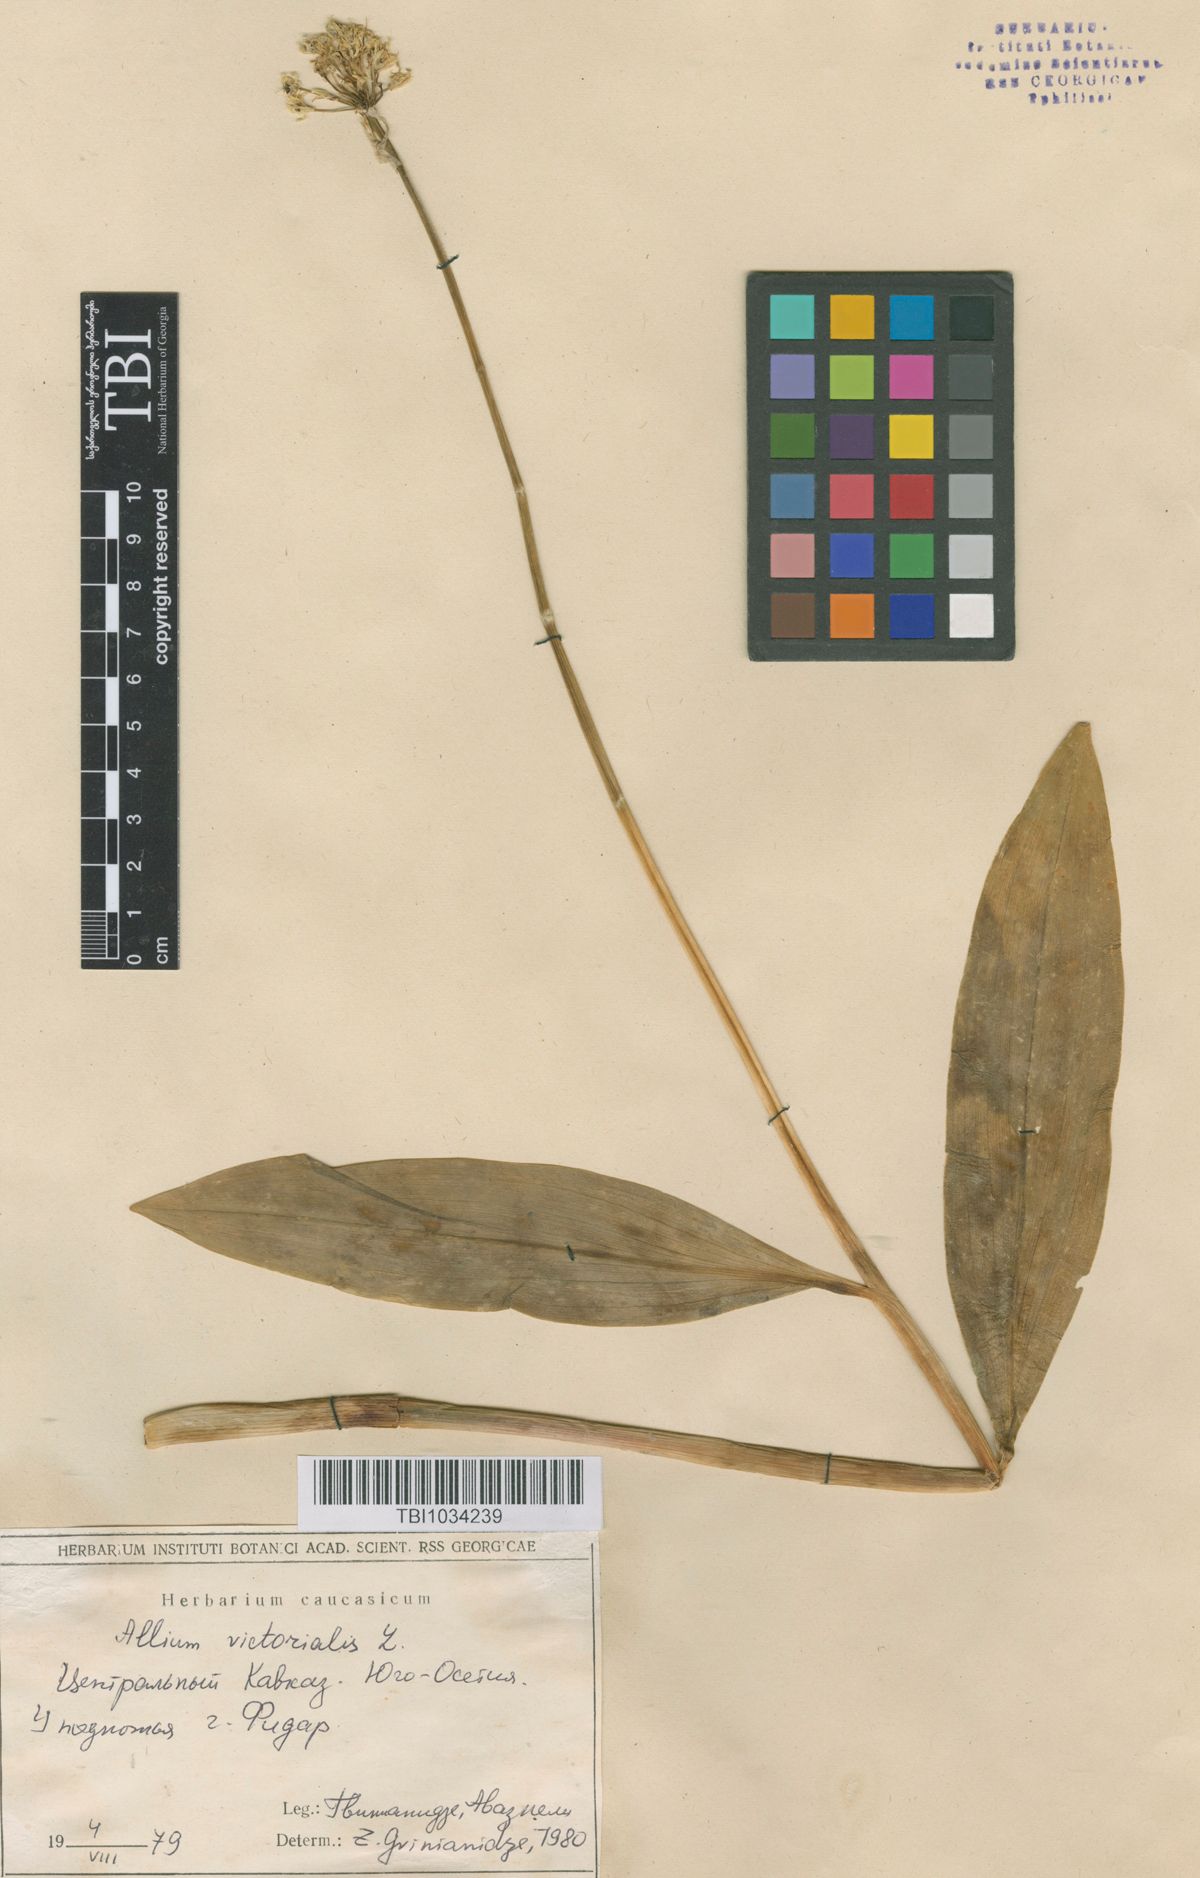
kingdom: Plantae
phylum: Tracheophyta
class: Liliopsida
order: Asparagales
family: Amaryllidaceae
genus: Allium
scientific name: Allium victorialis
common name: Alpine leek
